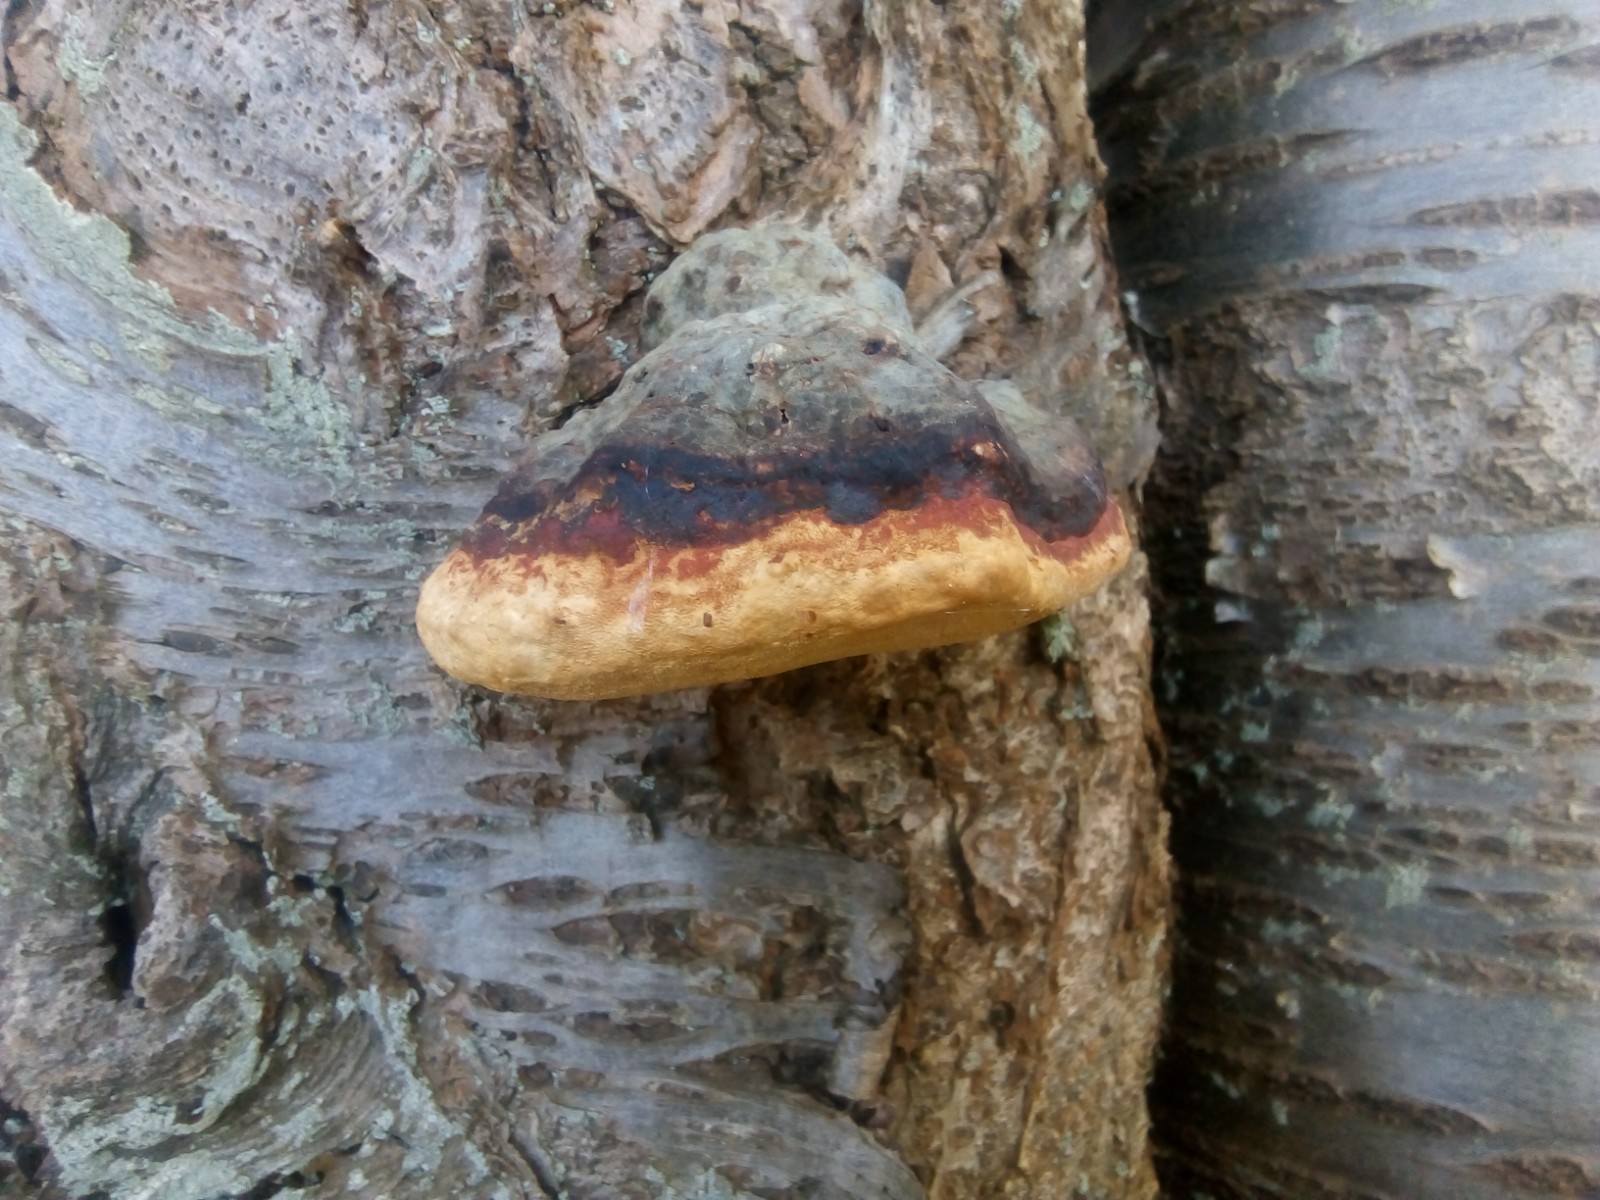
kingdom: Fungi
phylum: Basidiomycota
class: Agaricomycetes
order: Polyporales
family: Fomitopsidaceae
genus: Fomitopsis
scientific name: Fomitopsis pinicola
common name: randbæltet hovporesvamp
